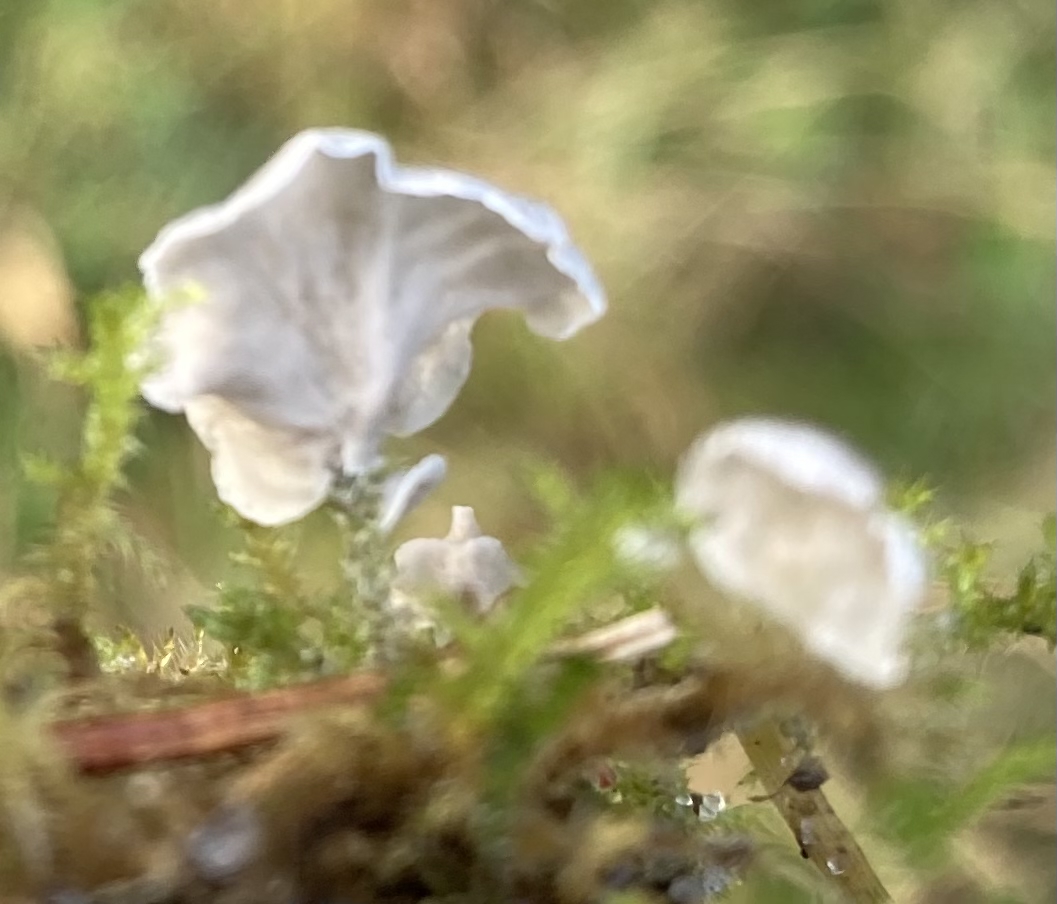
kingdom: Fungi
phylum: Basidiomycota
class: Agaricomycetes
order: Agaricales
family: Hygrophoraceae
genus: Arrhenia
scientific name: Arrhenia retiruga
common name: lille fontænehat
